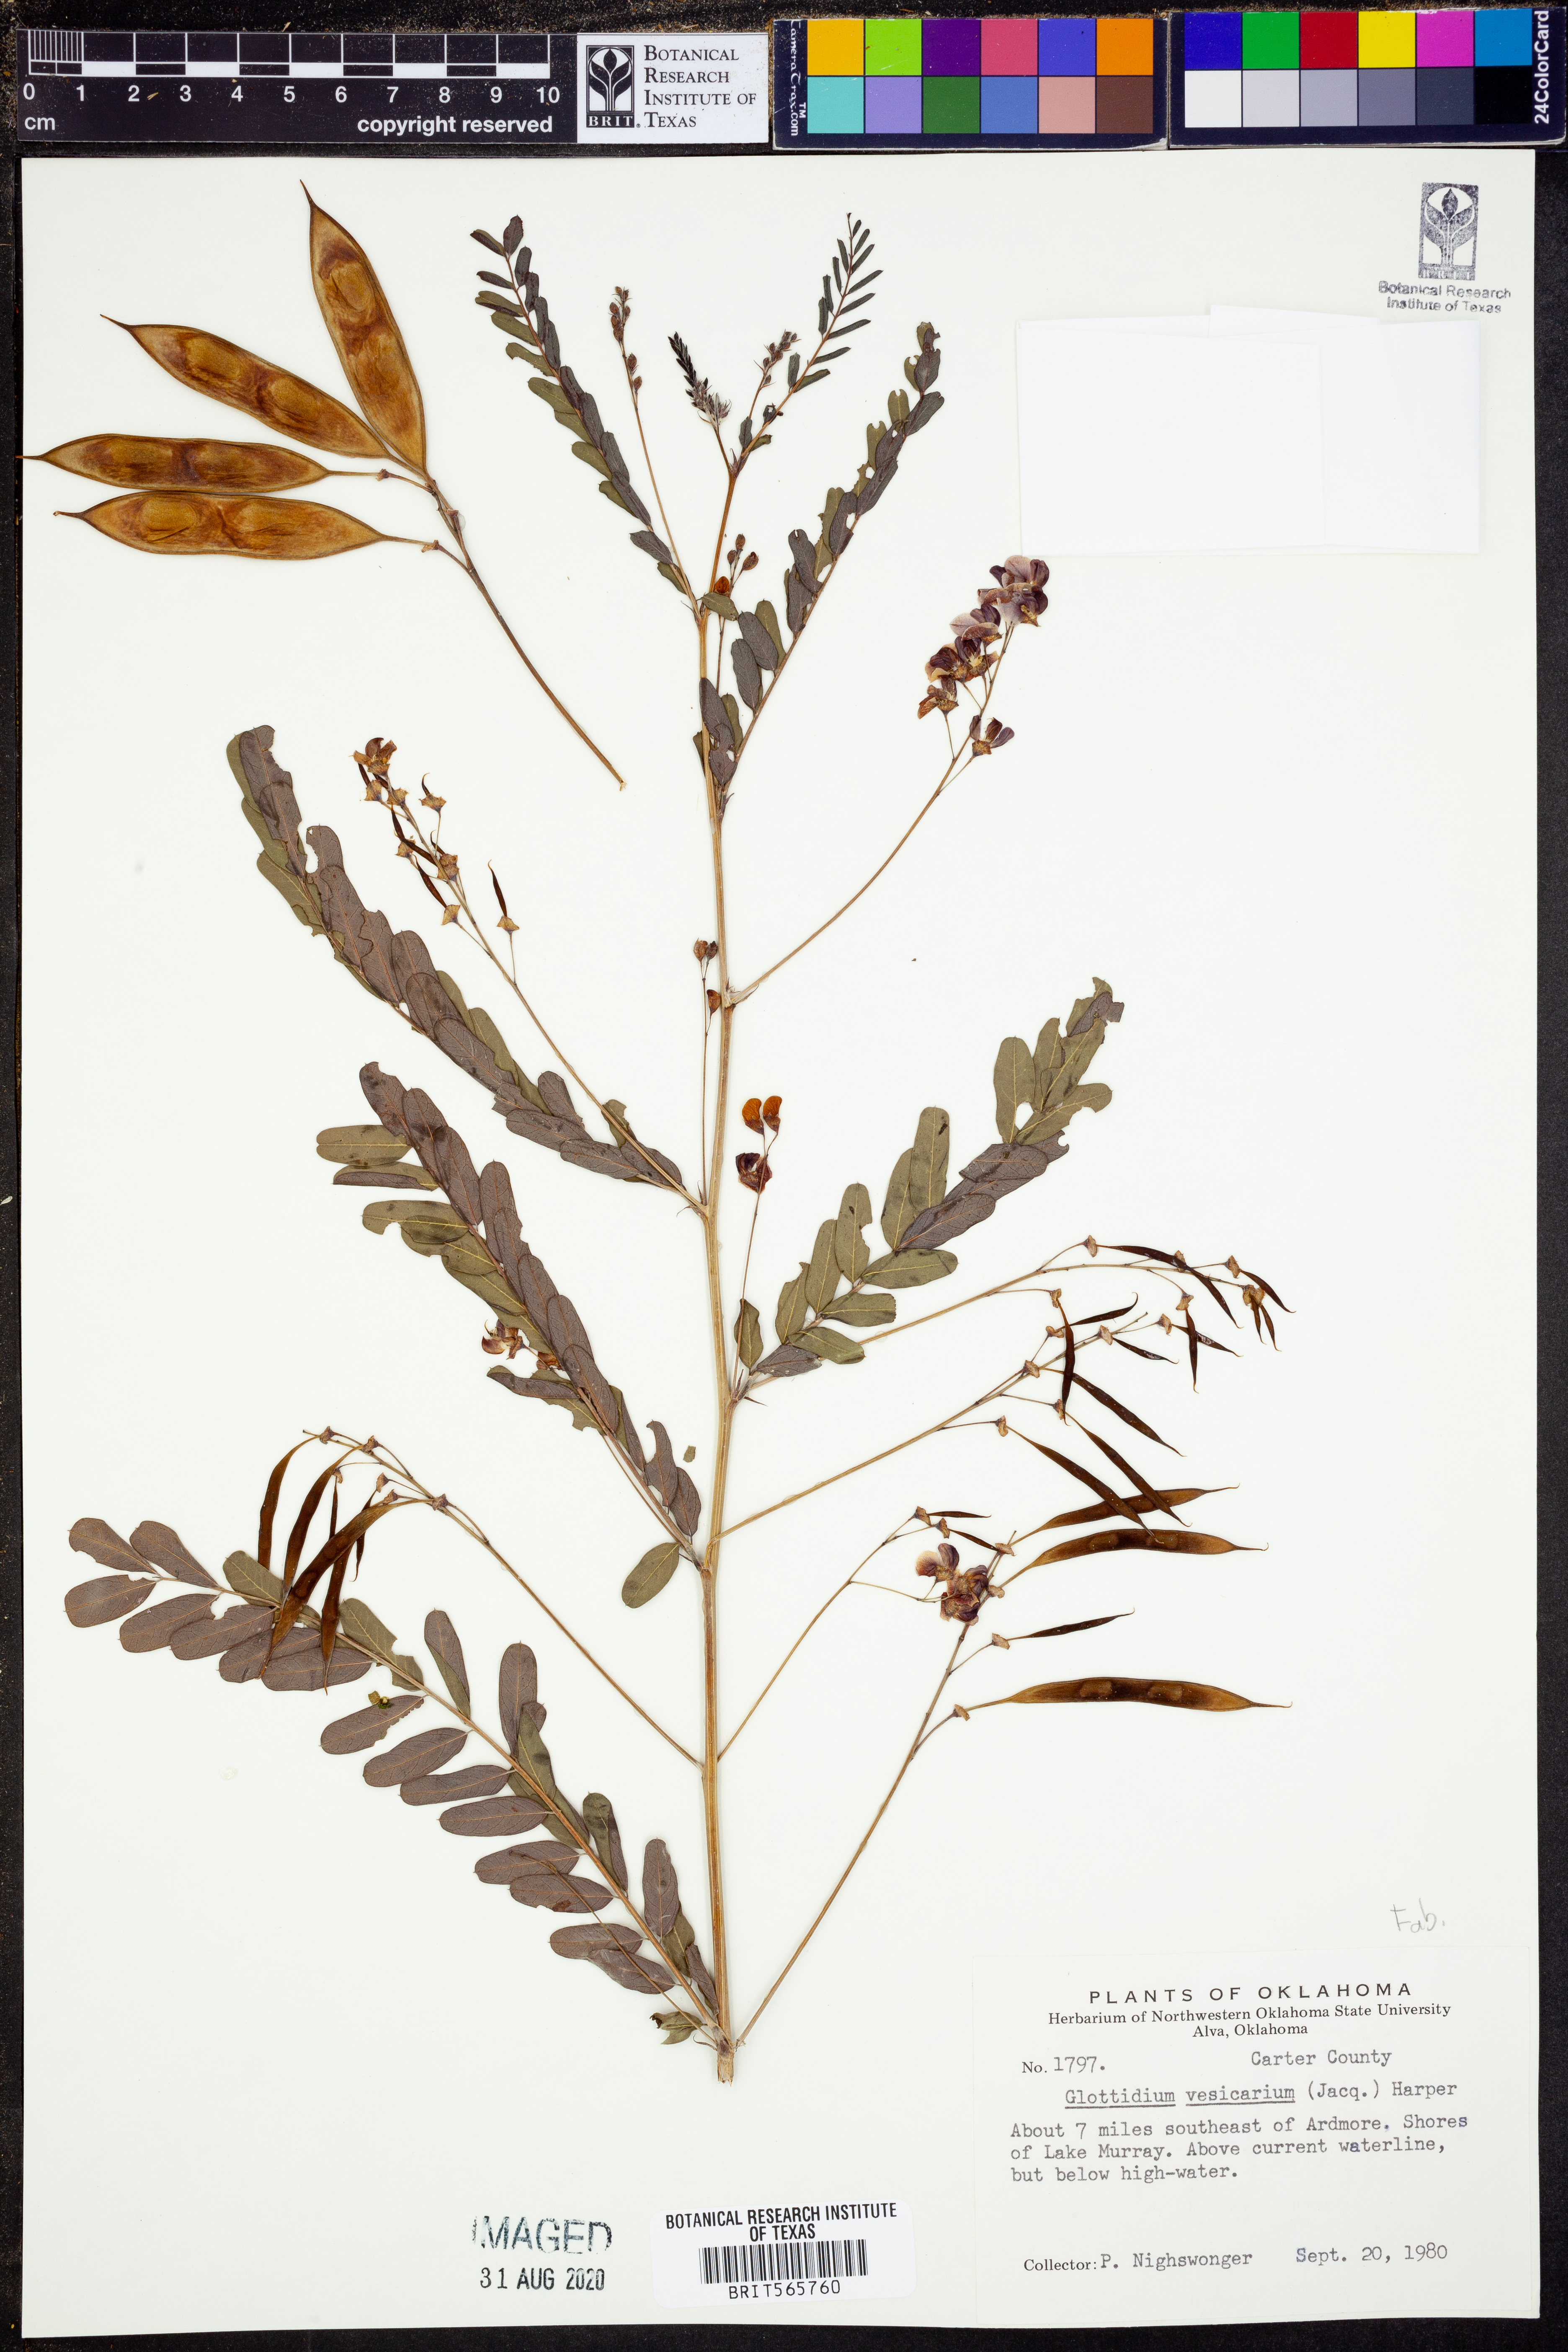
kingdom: Plantae
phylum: Tracheophyta
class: Magnoliopsida
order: Fabales
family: Fabaceae
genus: Sesbania
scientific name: Sesbania vesicaria
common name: Bagpod
